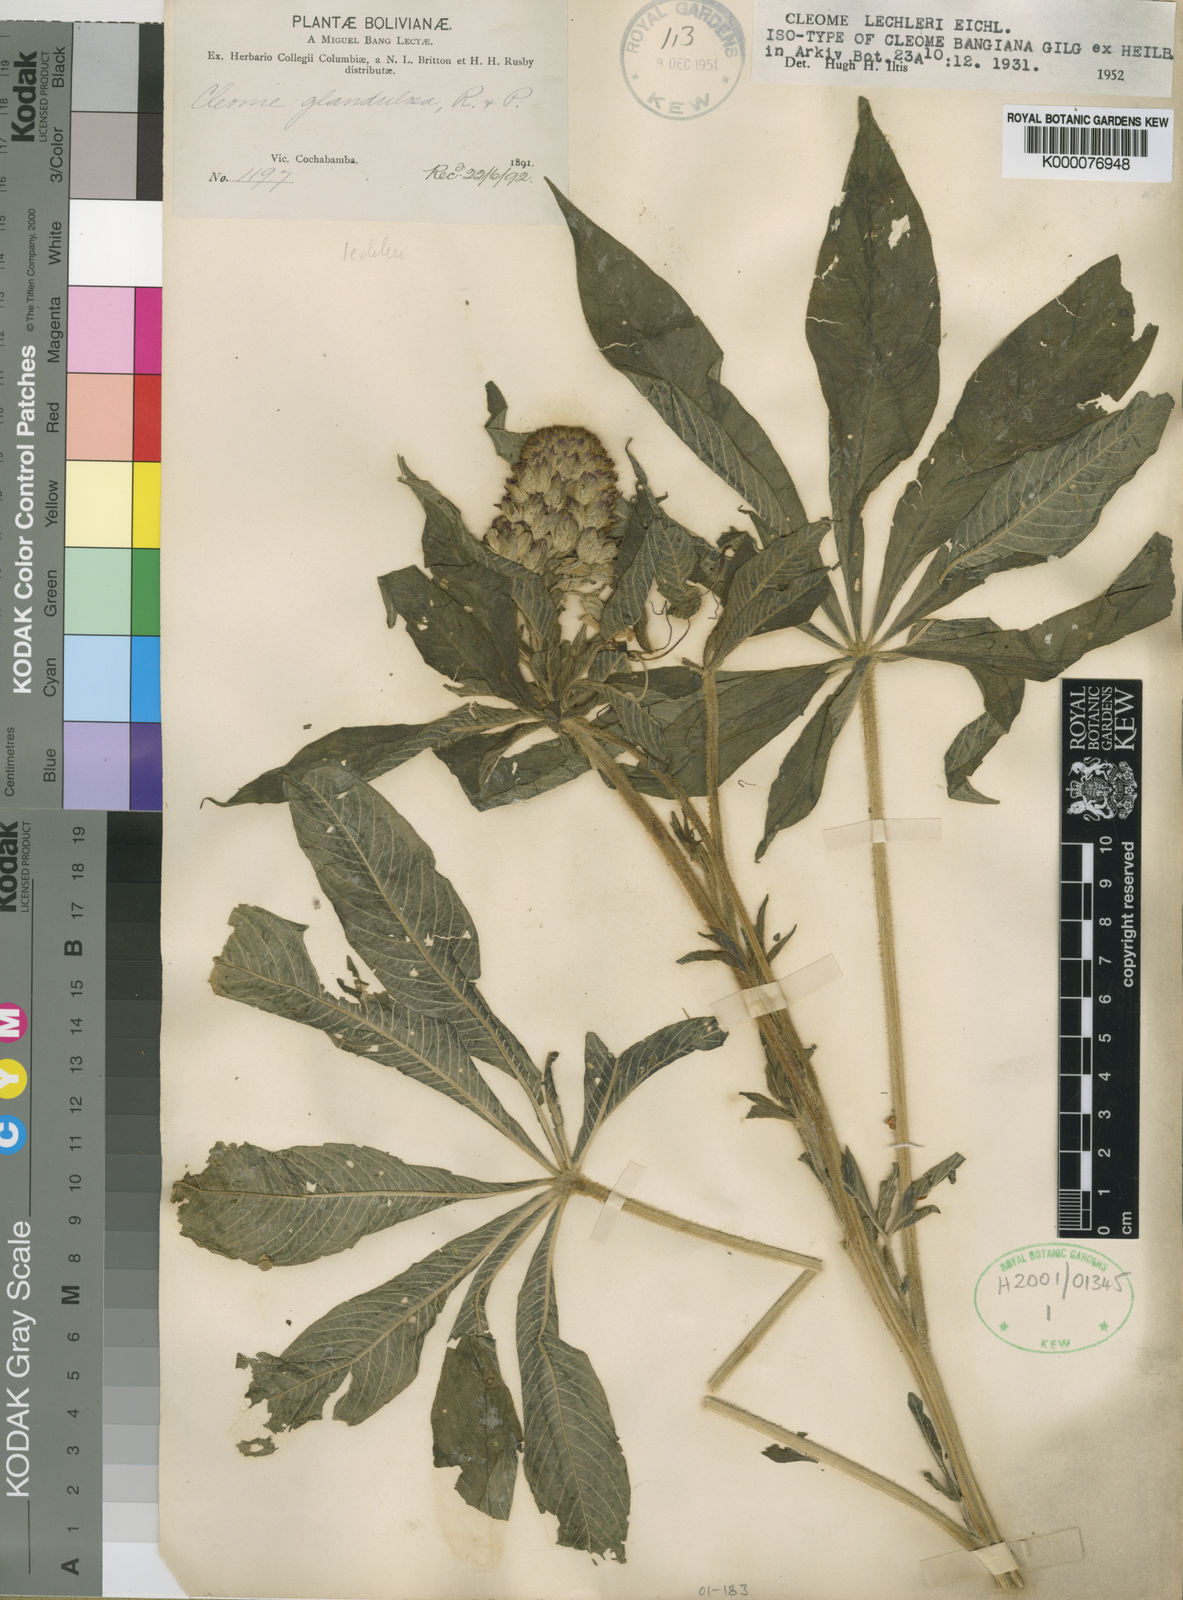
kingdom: Plantae
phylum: Tracheophyta
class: Magnoliopsida
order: Brassicales
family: Cleomaceae
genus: Andinocleome
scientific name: Andinocleome lechleri
